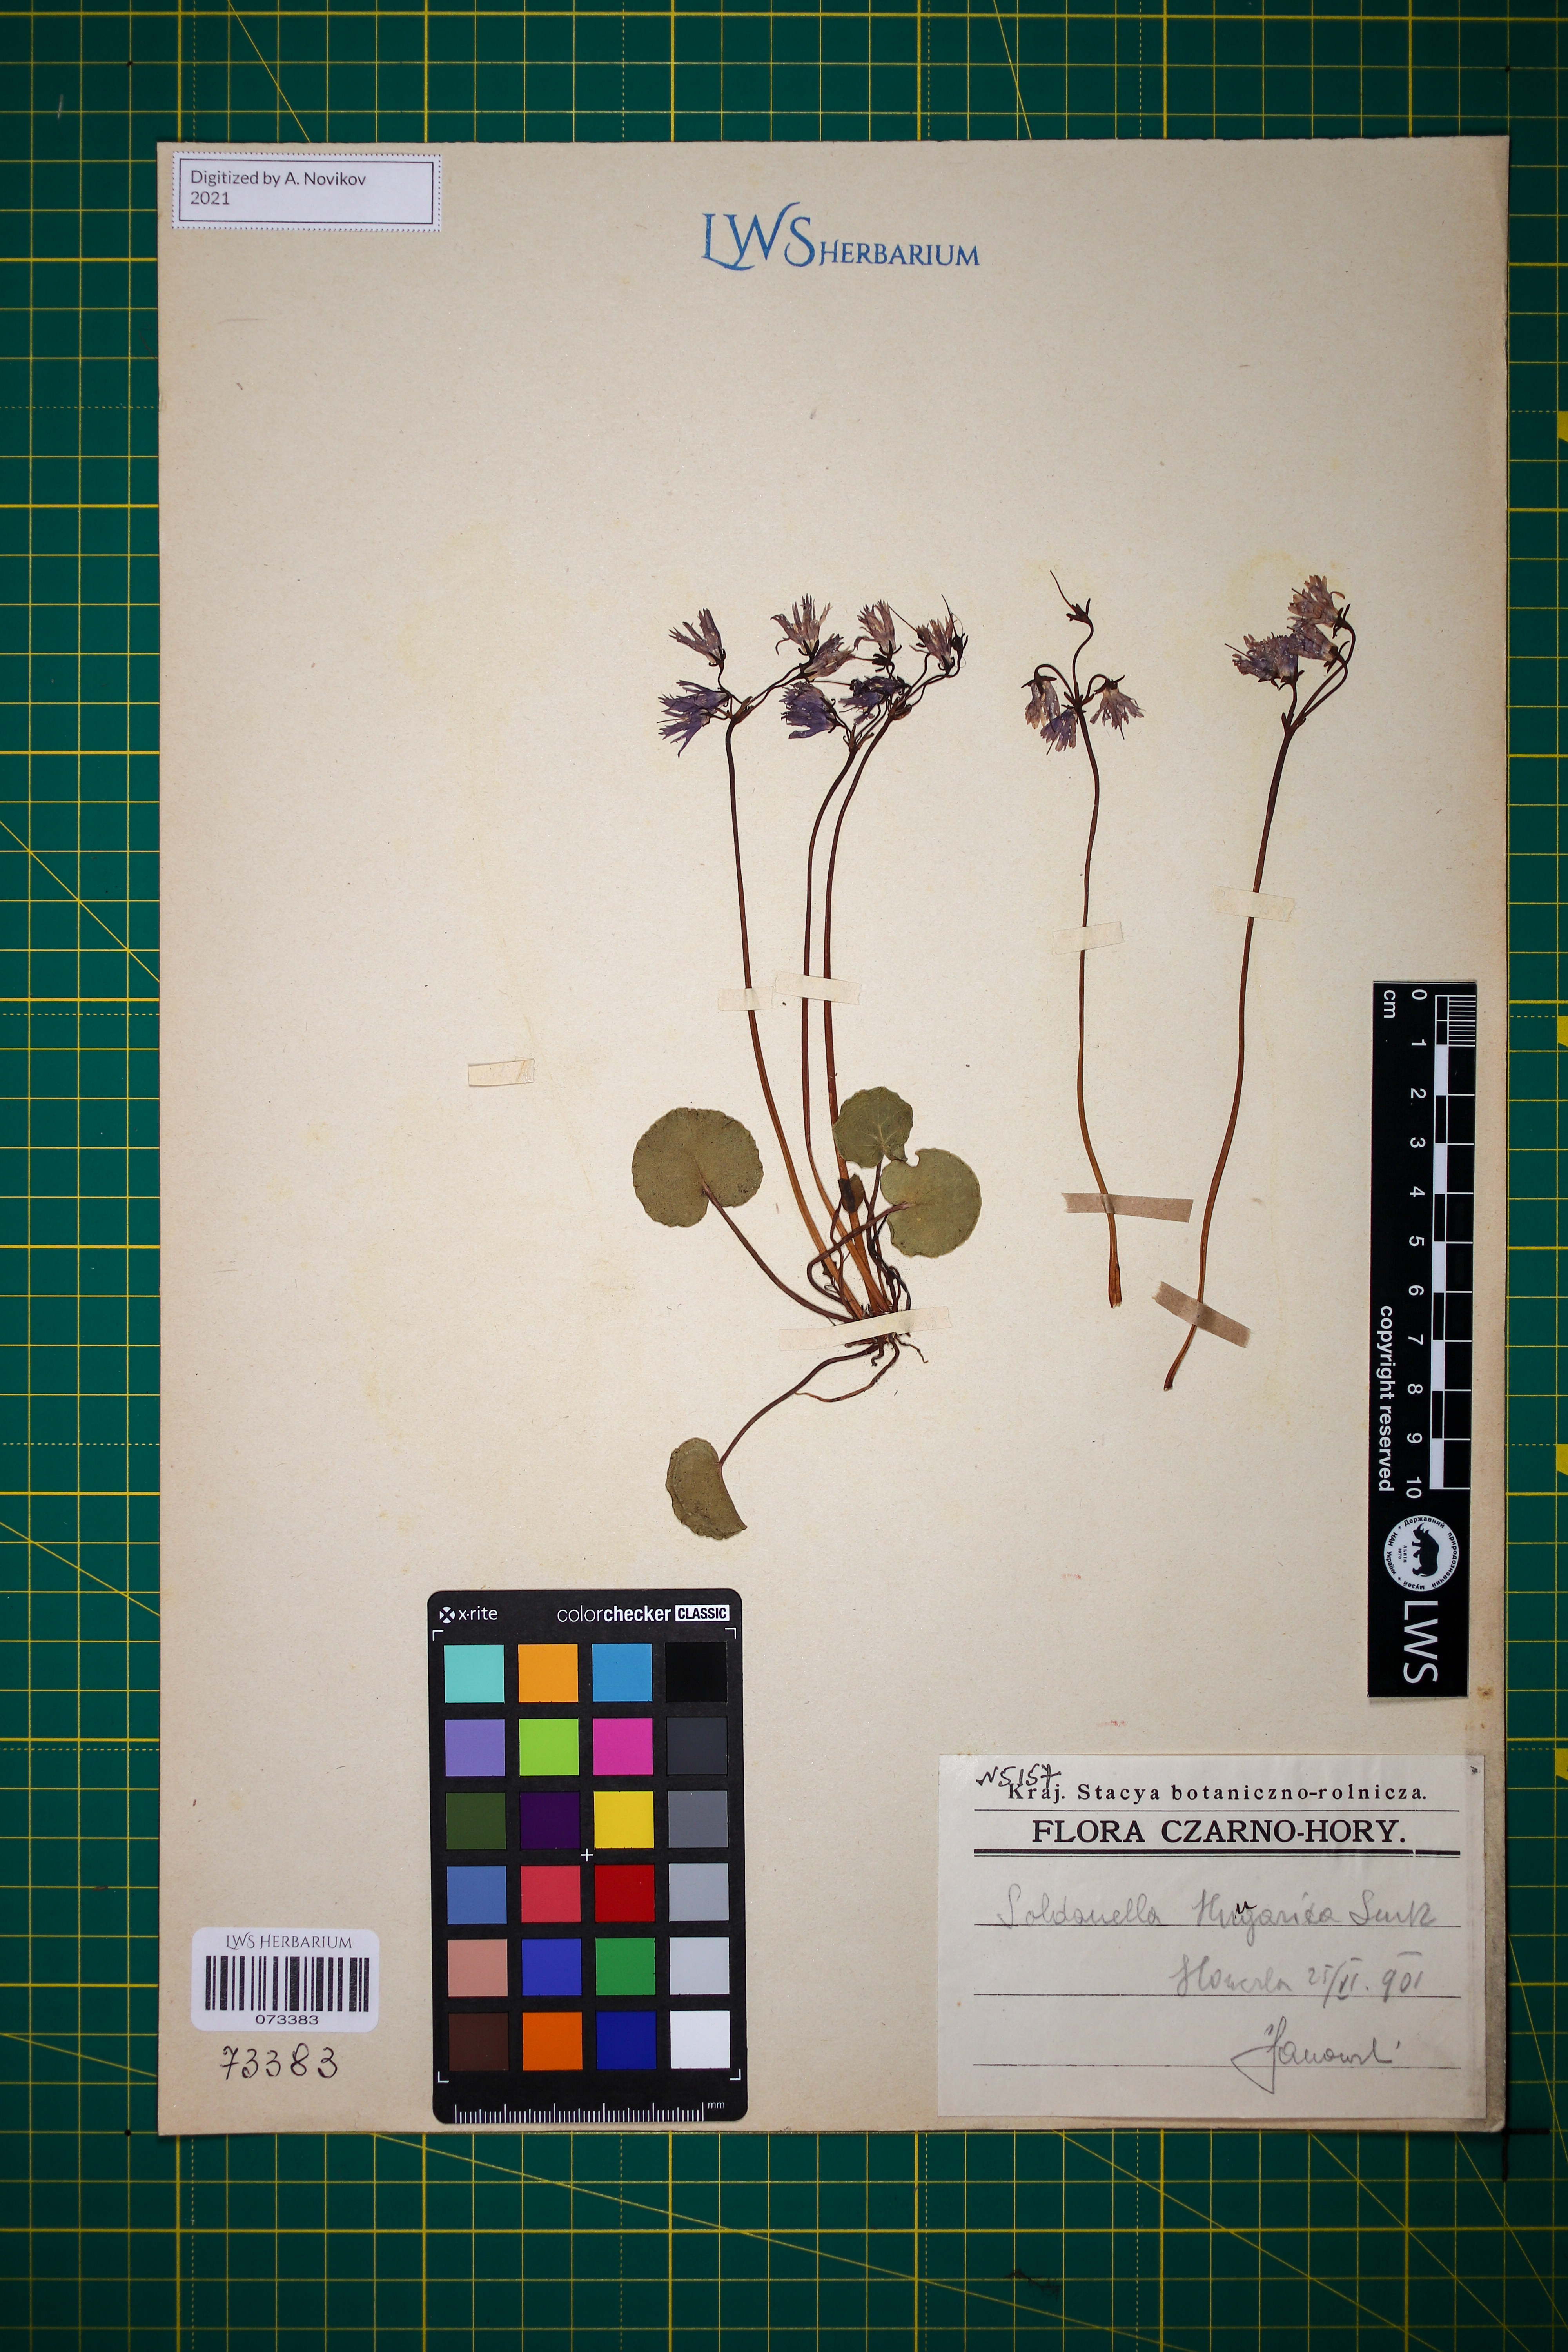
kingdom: Plantae
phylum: Tracheophyta
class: Magnoliopsida
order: Ericales
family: Primulaceae
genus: Soldanella
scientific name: Soldanella hungarica
